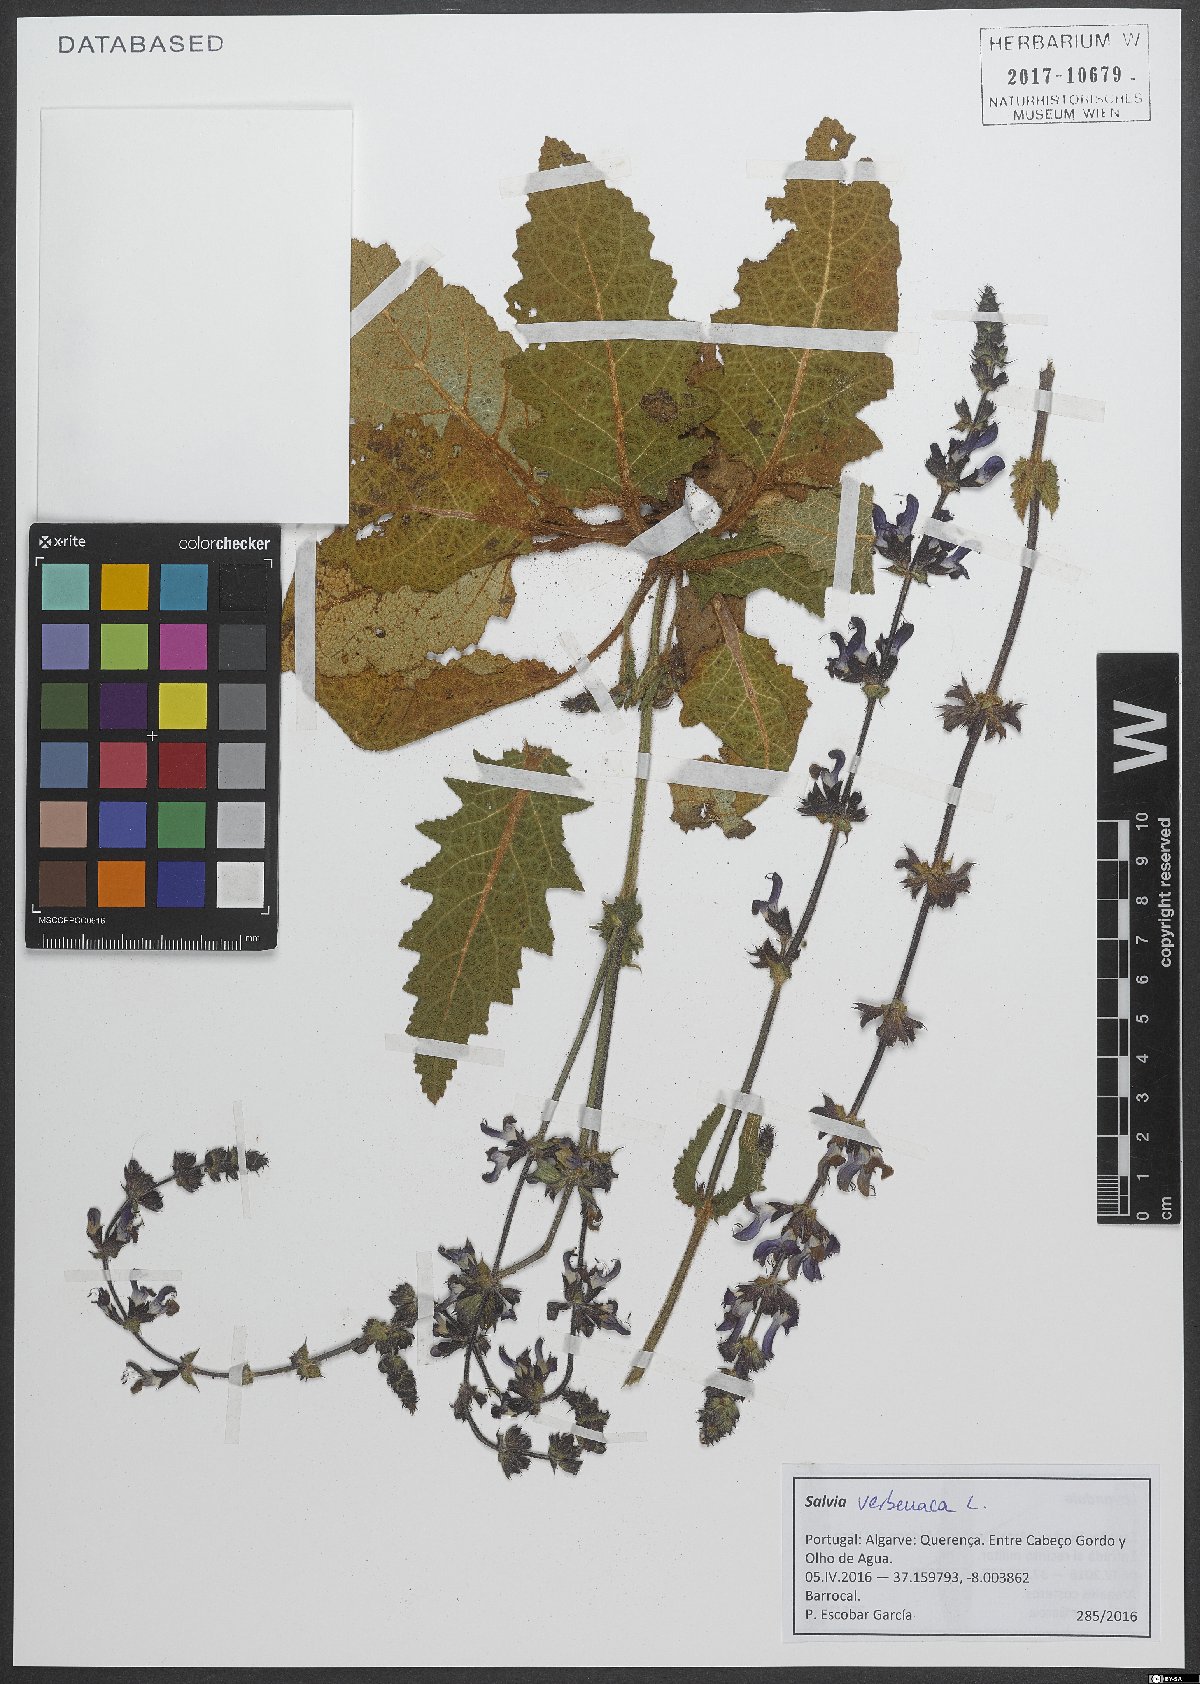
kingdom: Plantae
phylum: Tracheophyta
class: Magnoliopsida
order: Lamiales
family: Lamiaceae
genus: Salvia
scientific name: Salvia verbenaca
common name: Wild clary
